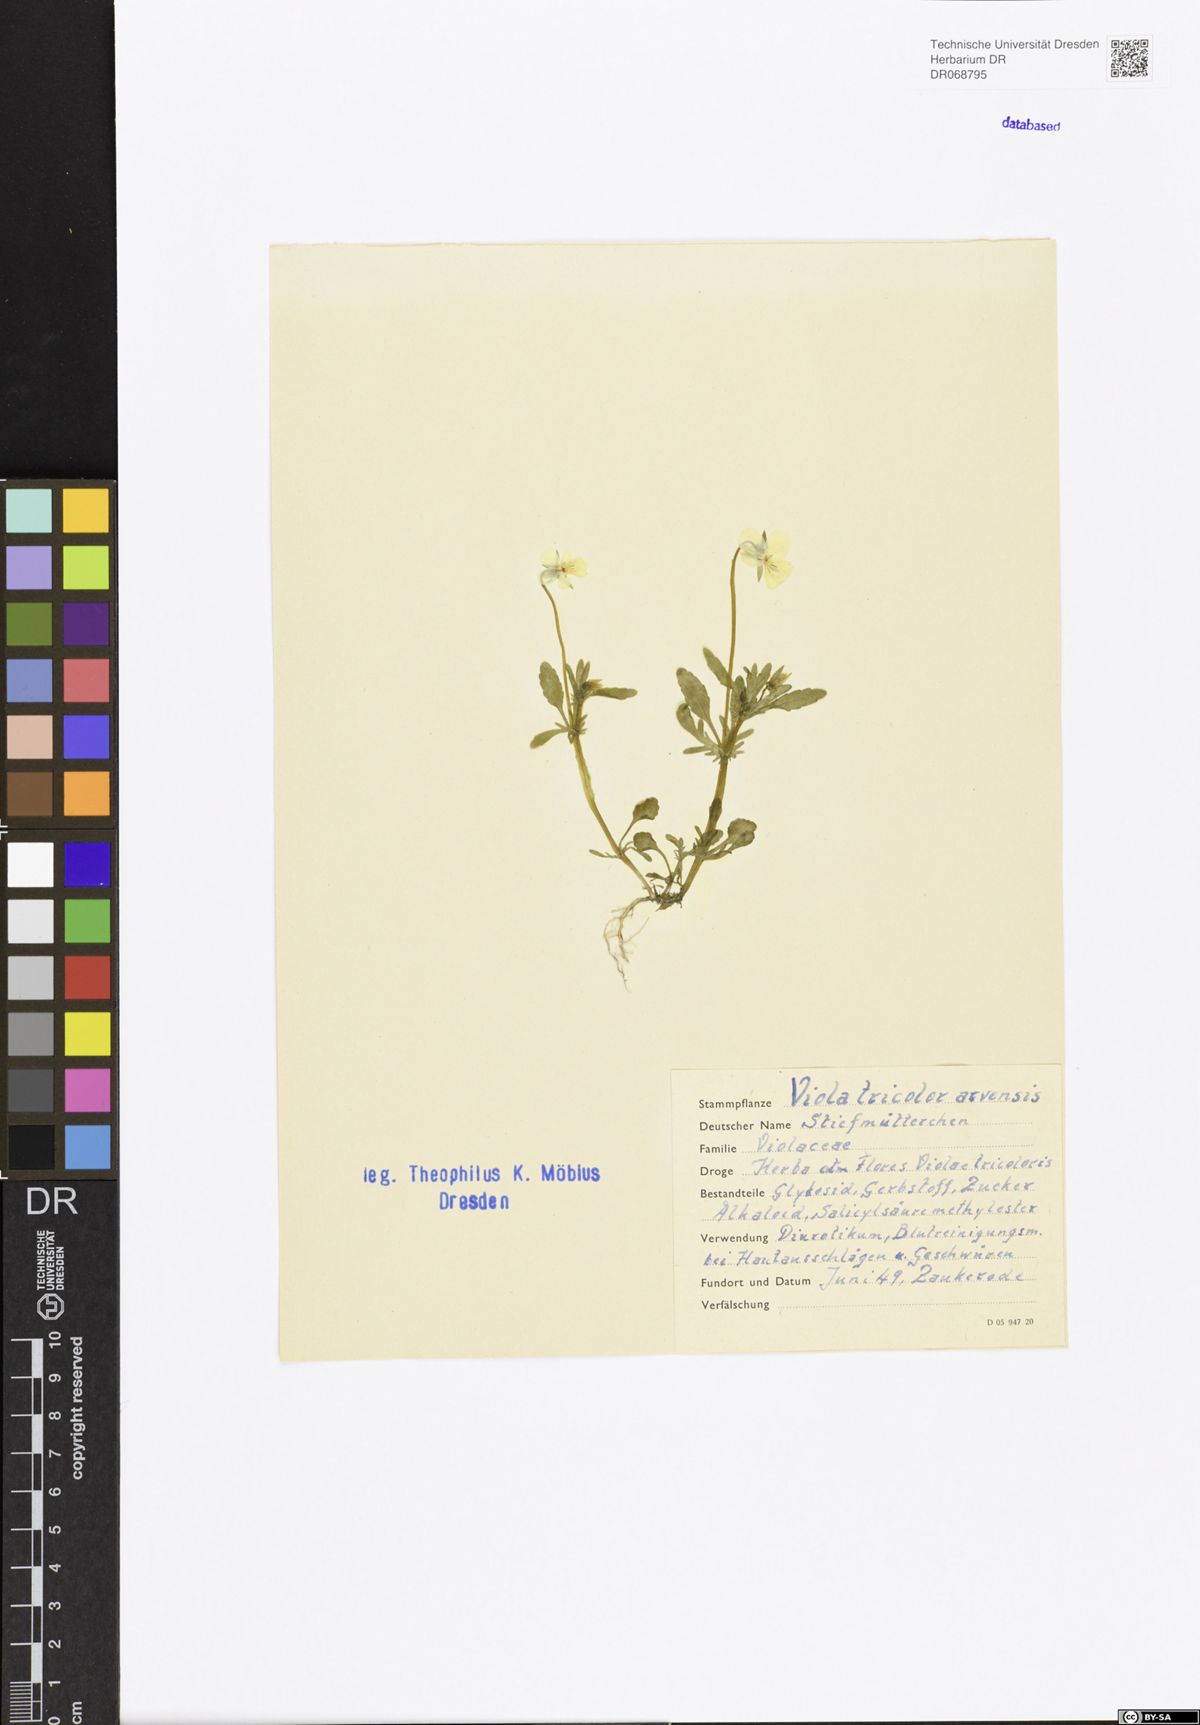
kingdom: Plantae
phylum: Tracheophyta
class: Magnoliopsida
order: Malpighiales
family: Violaceae
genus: Viola
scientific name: Viola arvensis
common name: Field pansy
